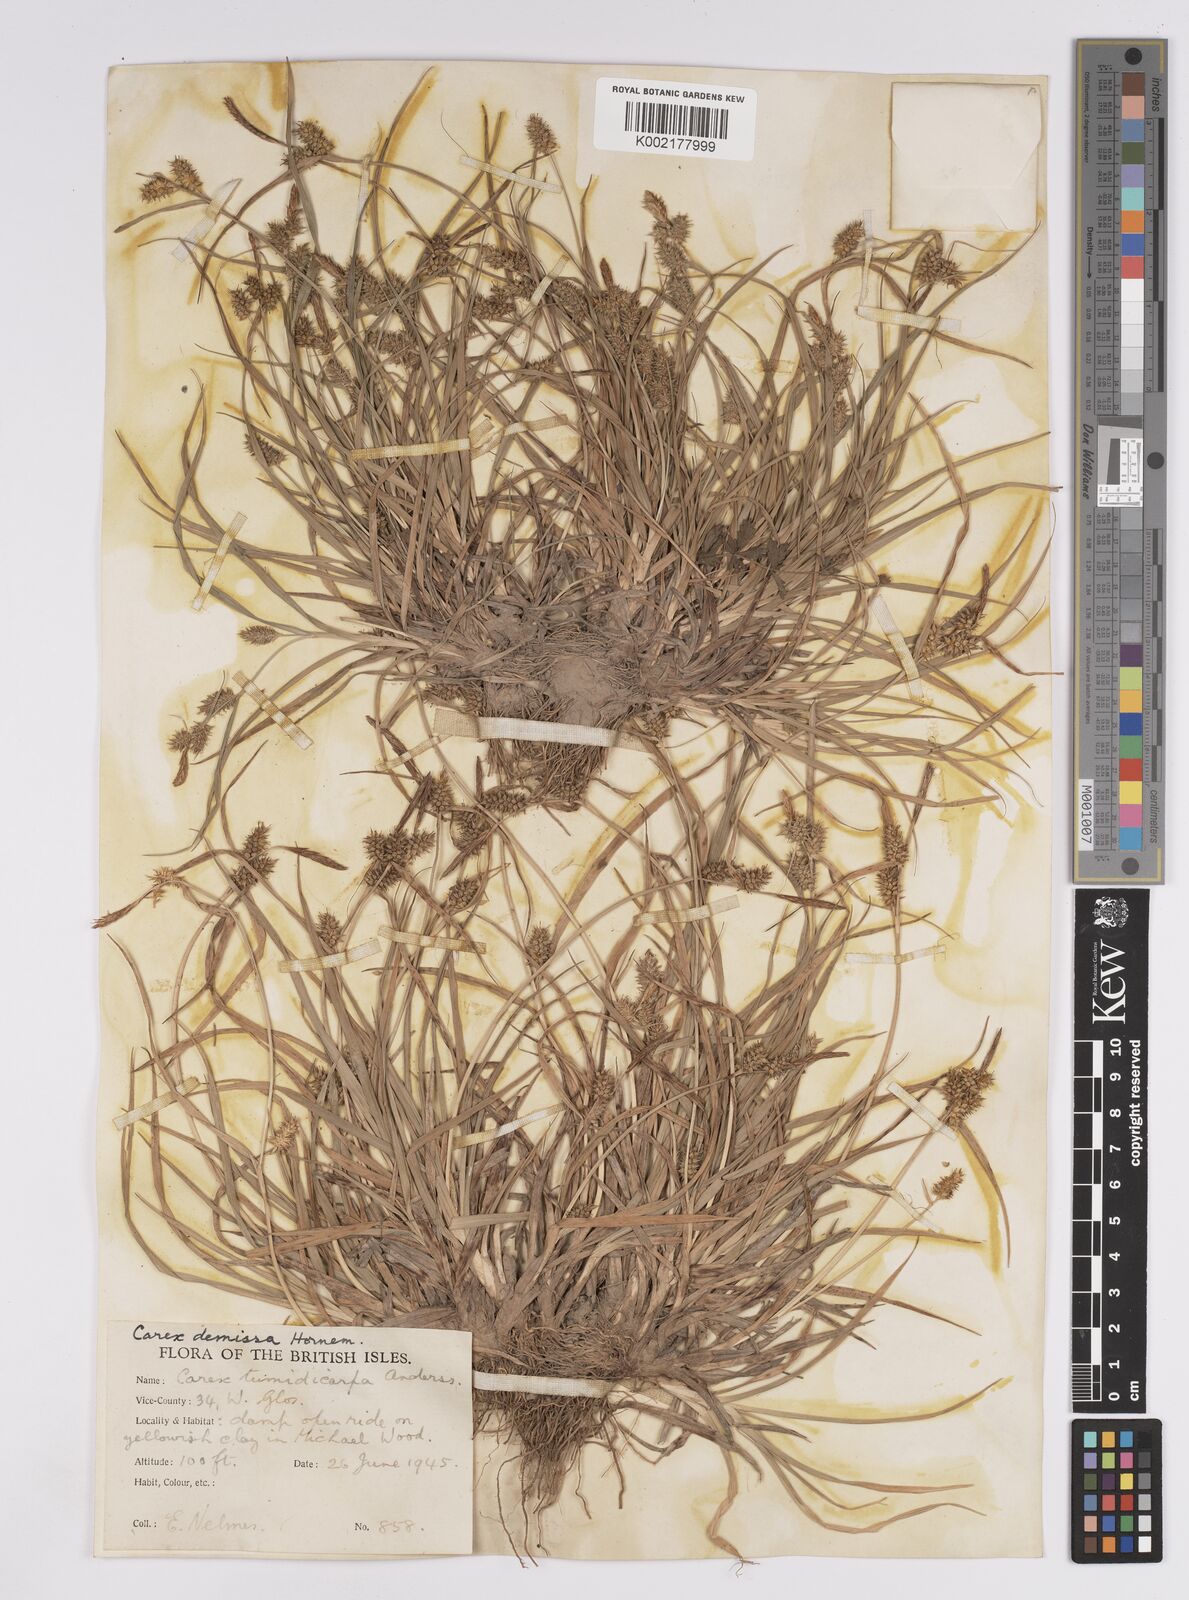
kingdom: Plantae
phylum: Tracheophyta
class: Liliopsida
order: Poales
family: Cyperaceae
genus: Carex
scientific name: Carex demissa
